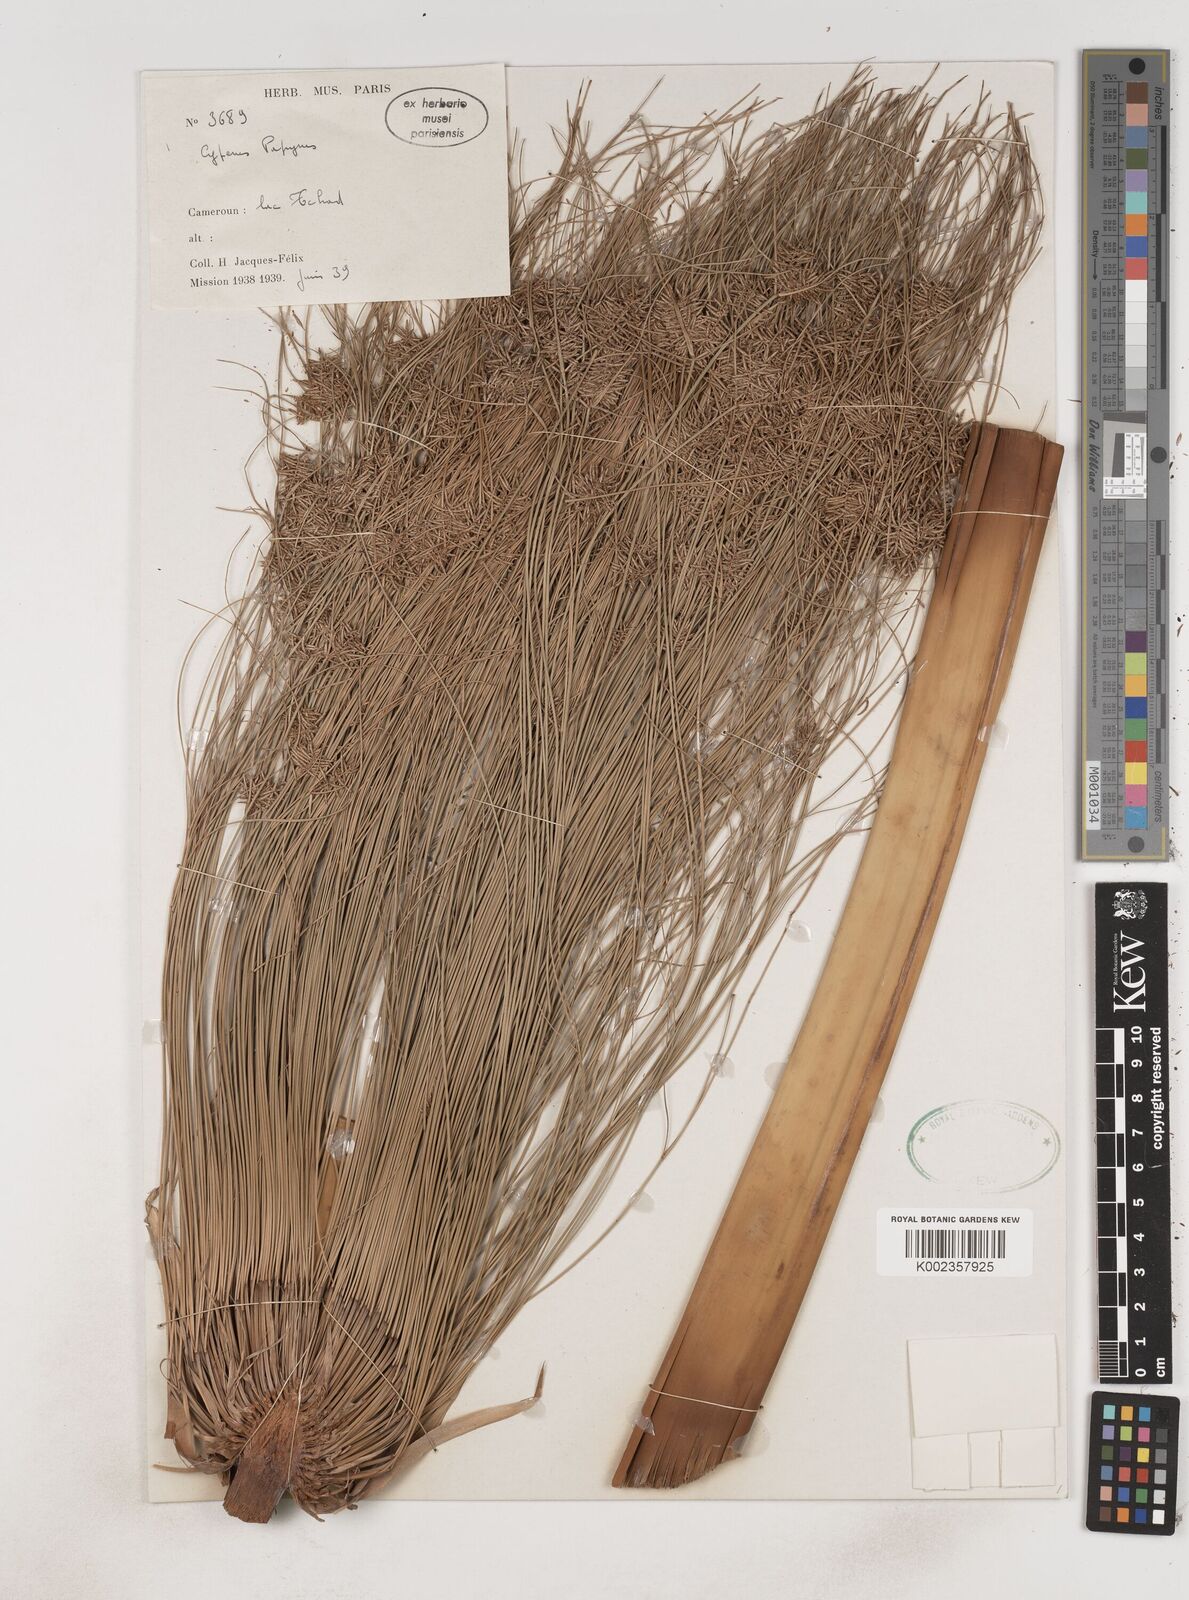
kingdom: Plantae
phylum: Tracheophyta
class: Liliopsida
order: Poales
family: Cyperaceae
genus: Cyperus
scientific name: Cyperus papyrus
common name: Papyrus
